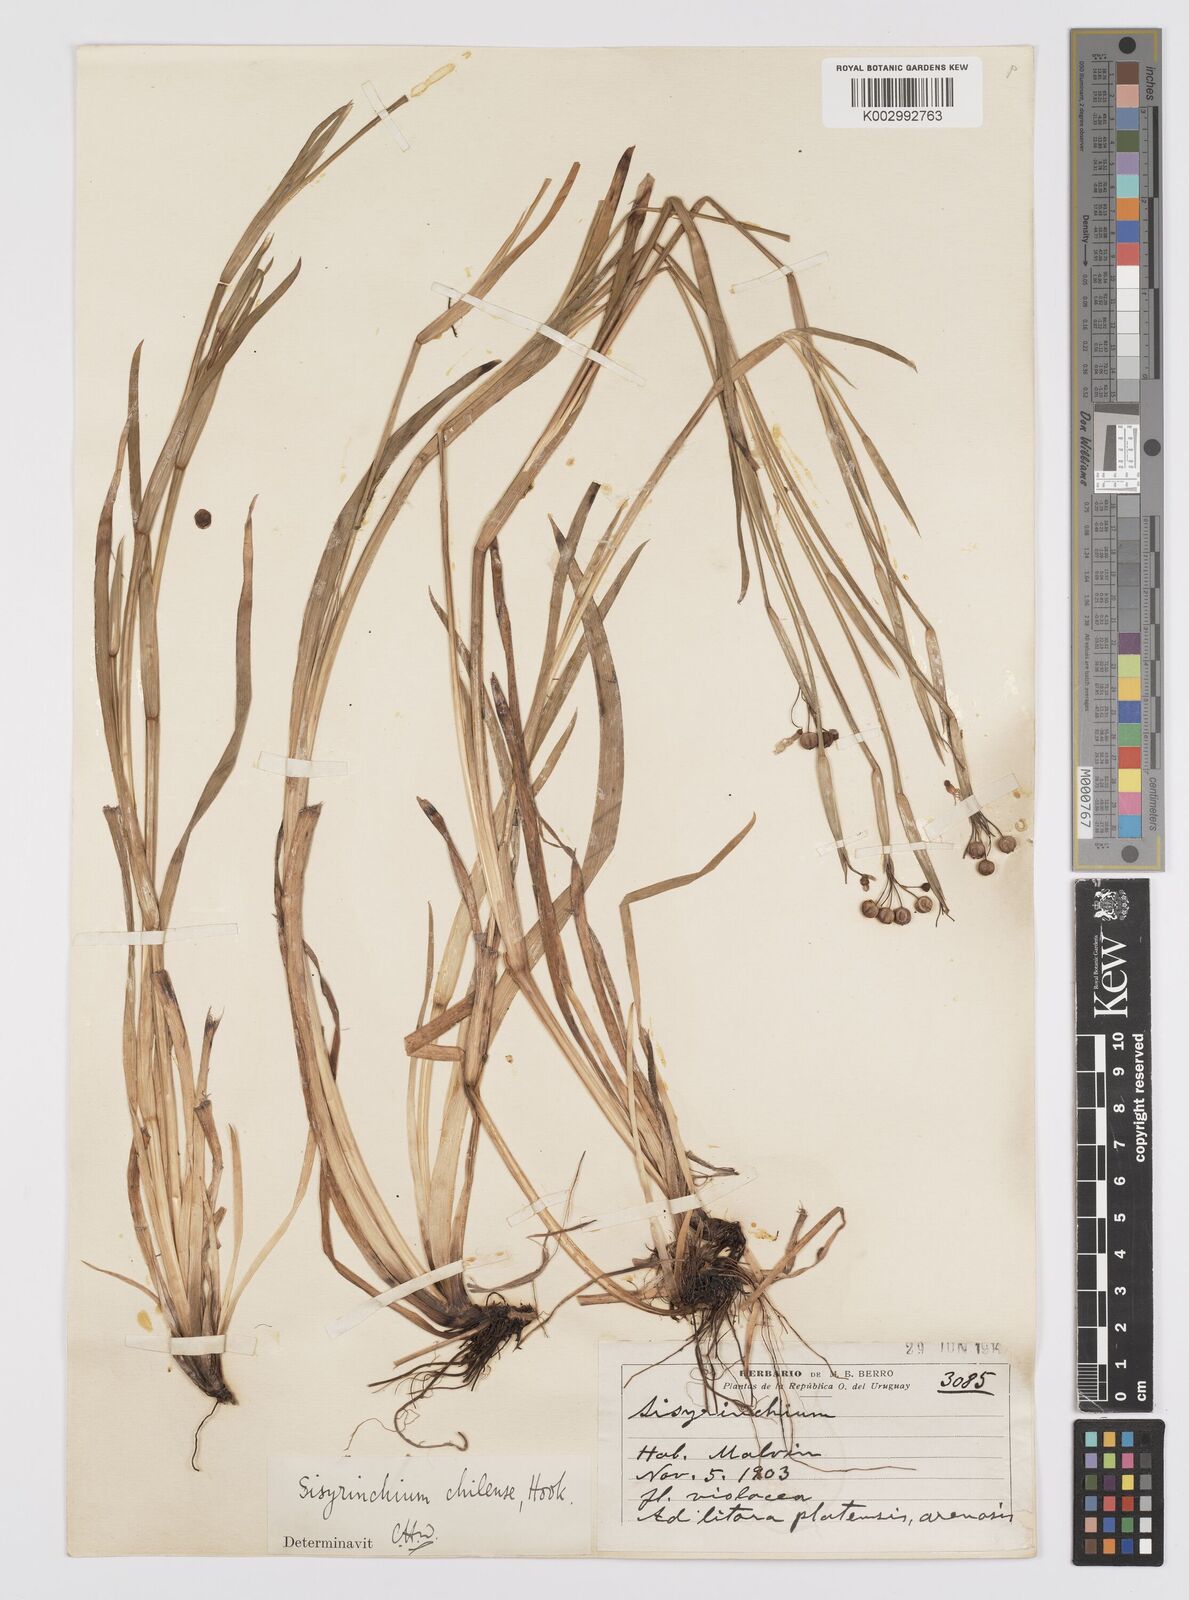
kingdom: Plantae
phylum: Tracheophyta
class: Liliopsida
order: Asparagales
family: Iridaceae
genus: Sisyrinchium
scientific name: Sisyrinchium chilense
